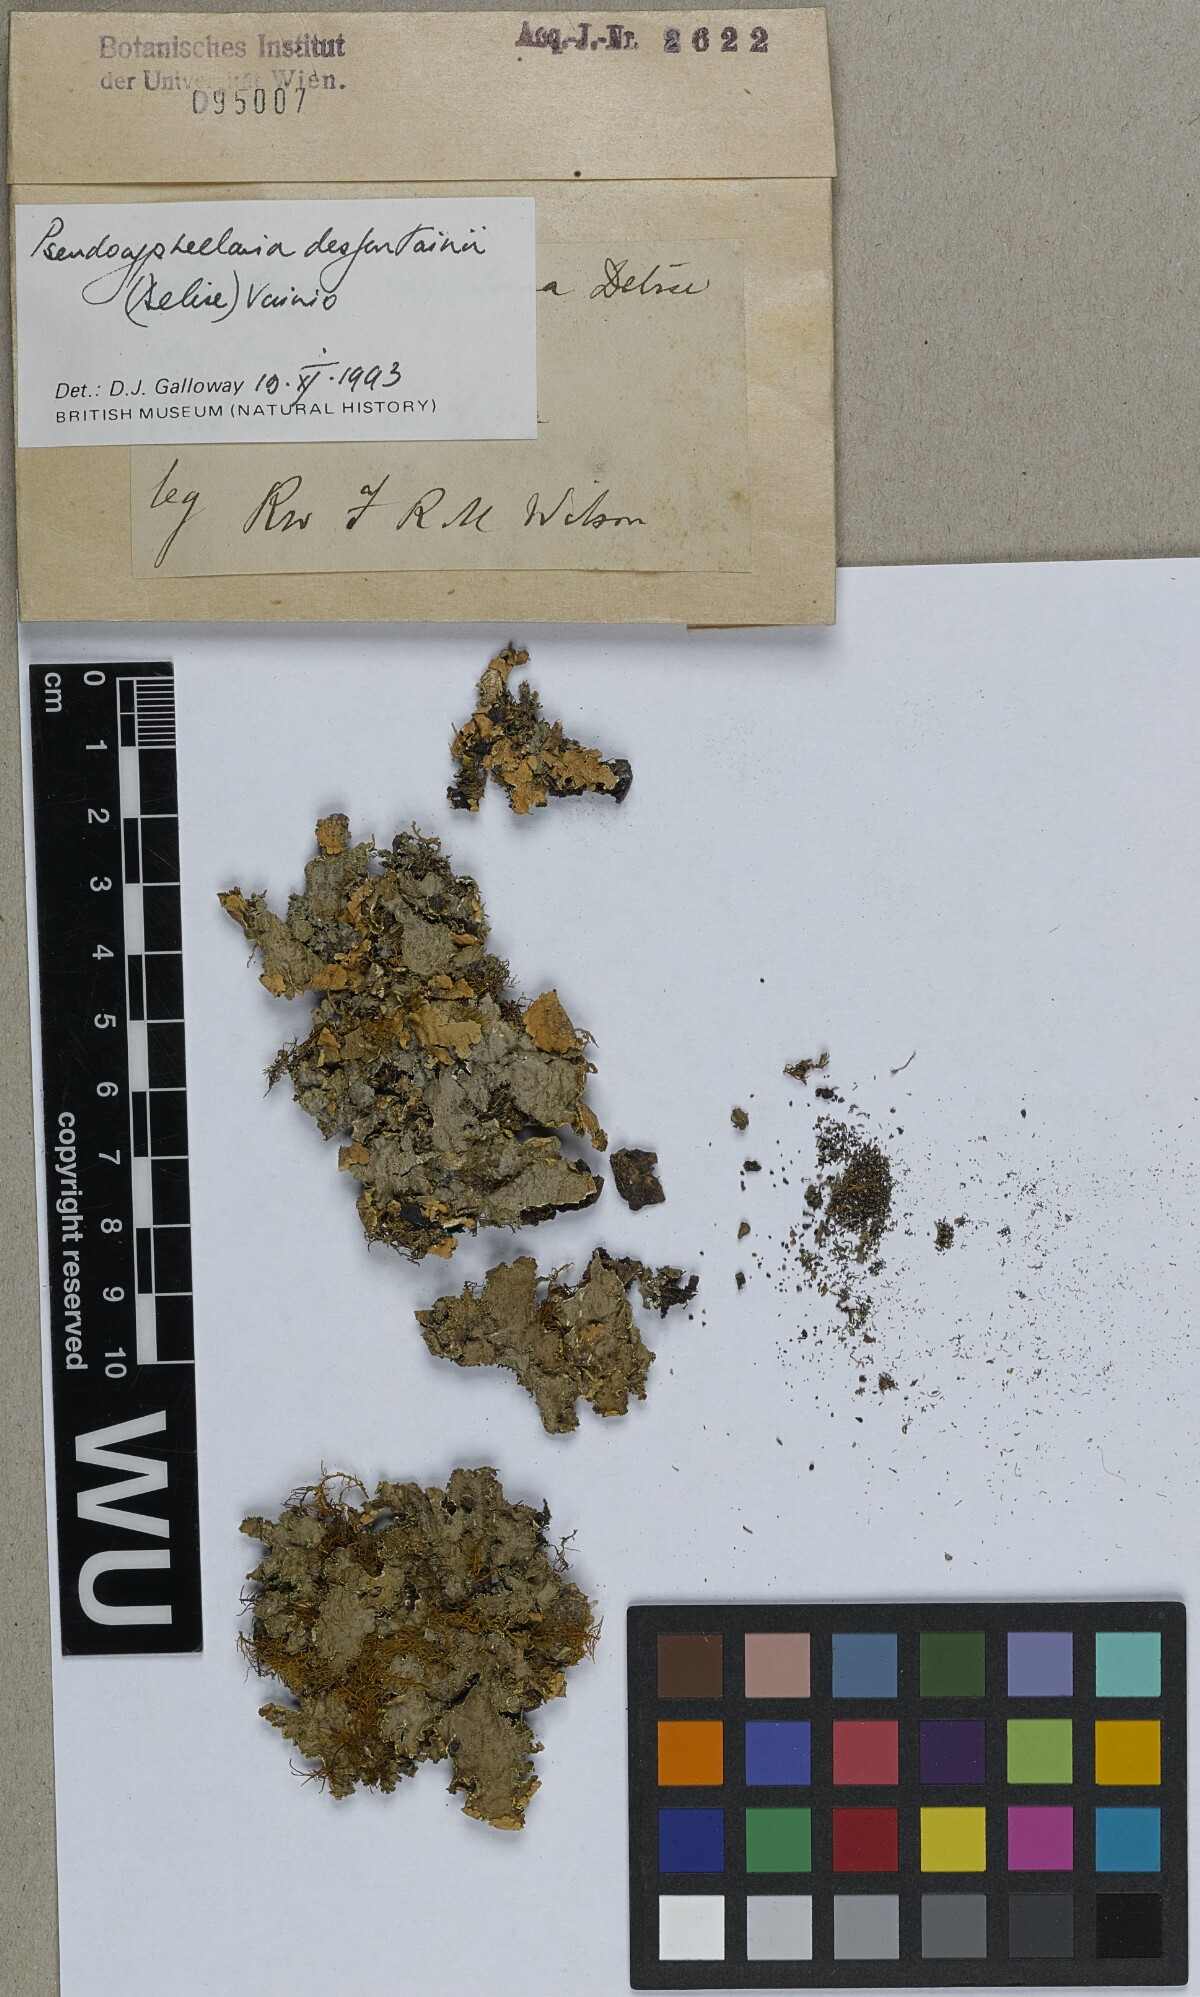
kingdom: Fungi
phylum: Ascomycota
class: Lecanoromycetes
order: Peltigerales
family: Lobariaceae
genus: Pseudocyphellaria
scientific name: Pseudocyphellaria desfontainii
